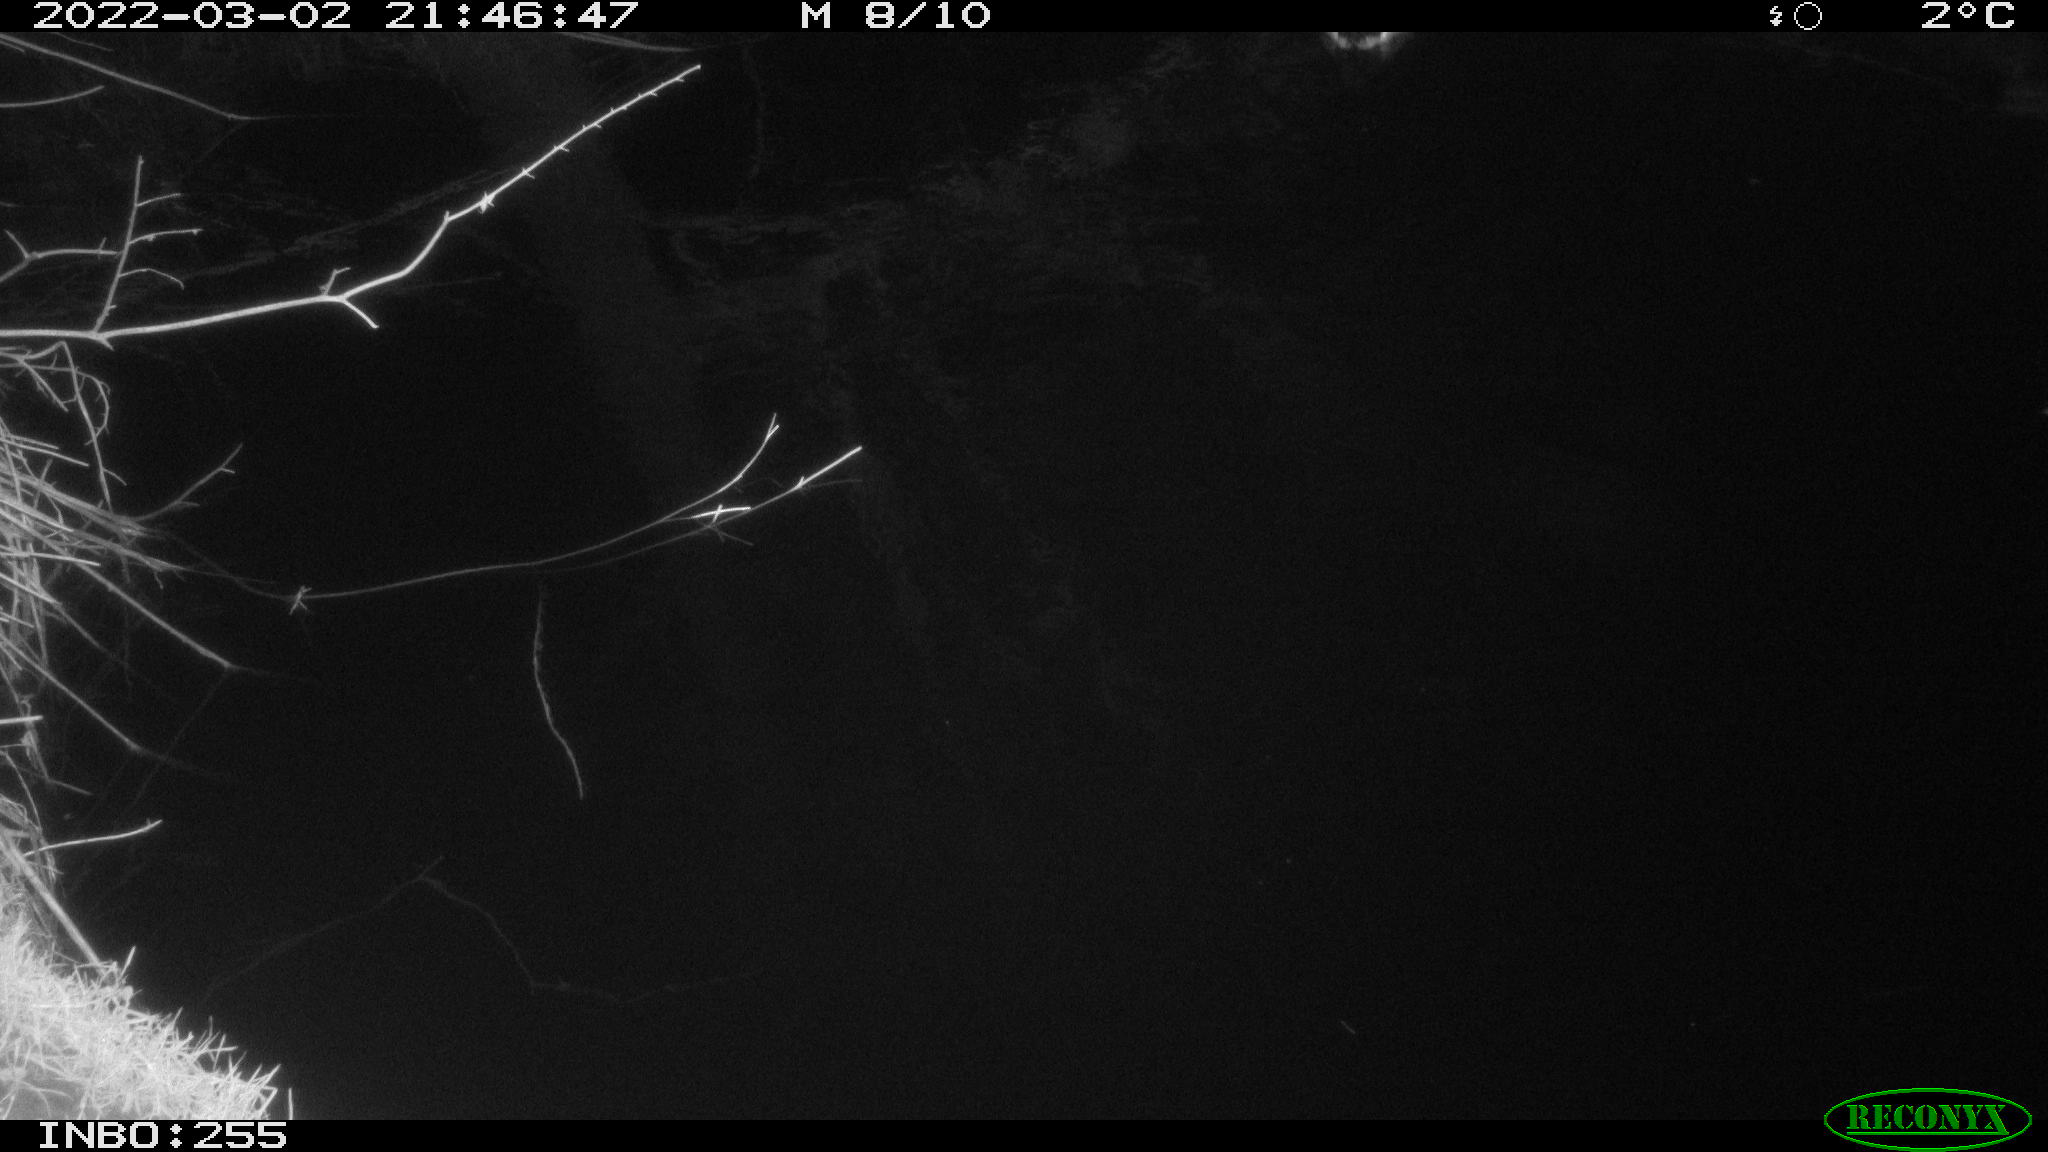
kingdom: Animalia
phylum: Chordata
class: Aves
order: Anseriformes
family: Anatidae
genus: Anas
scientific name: Anas platyrhynchos
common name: Mallard
